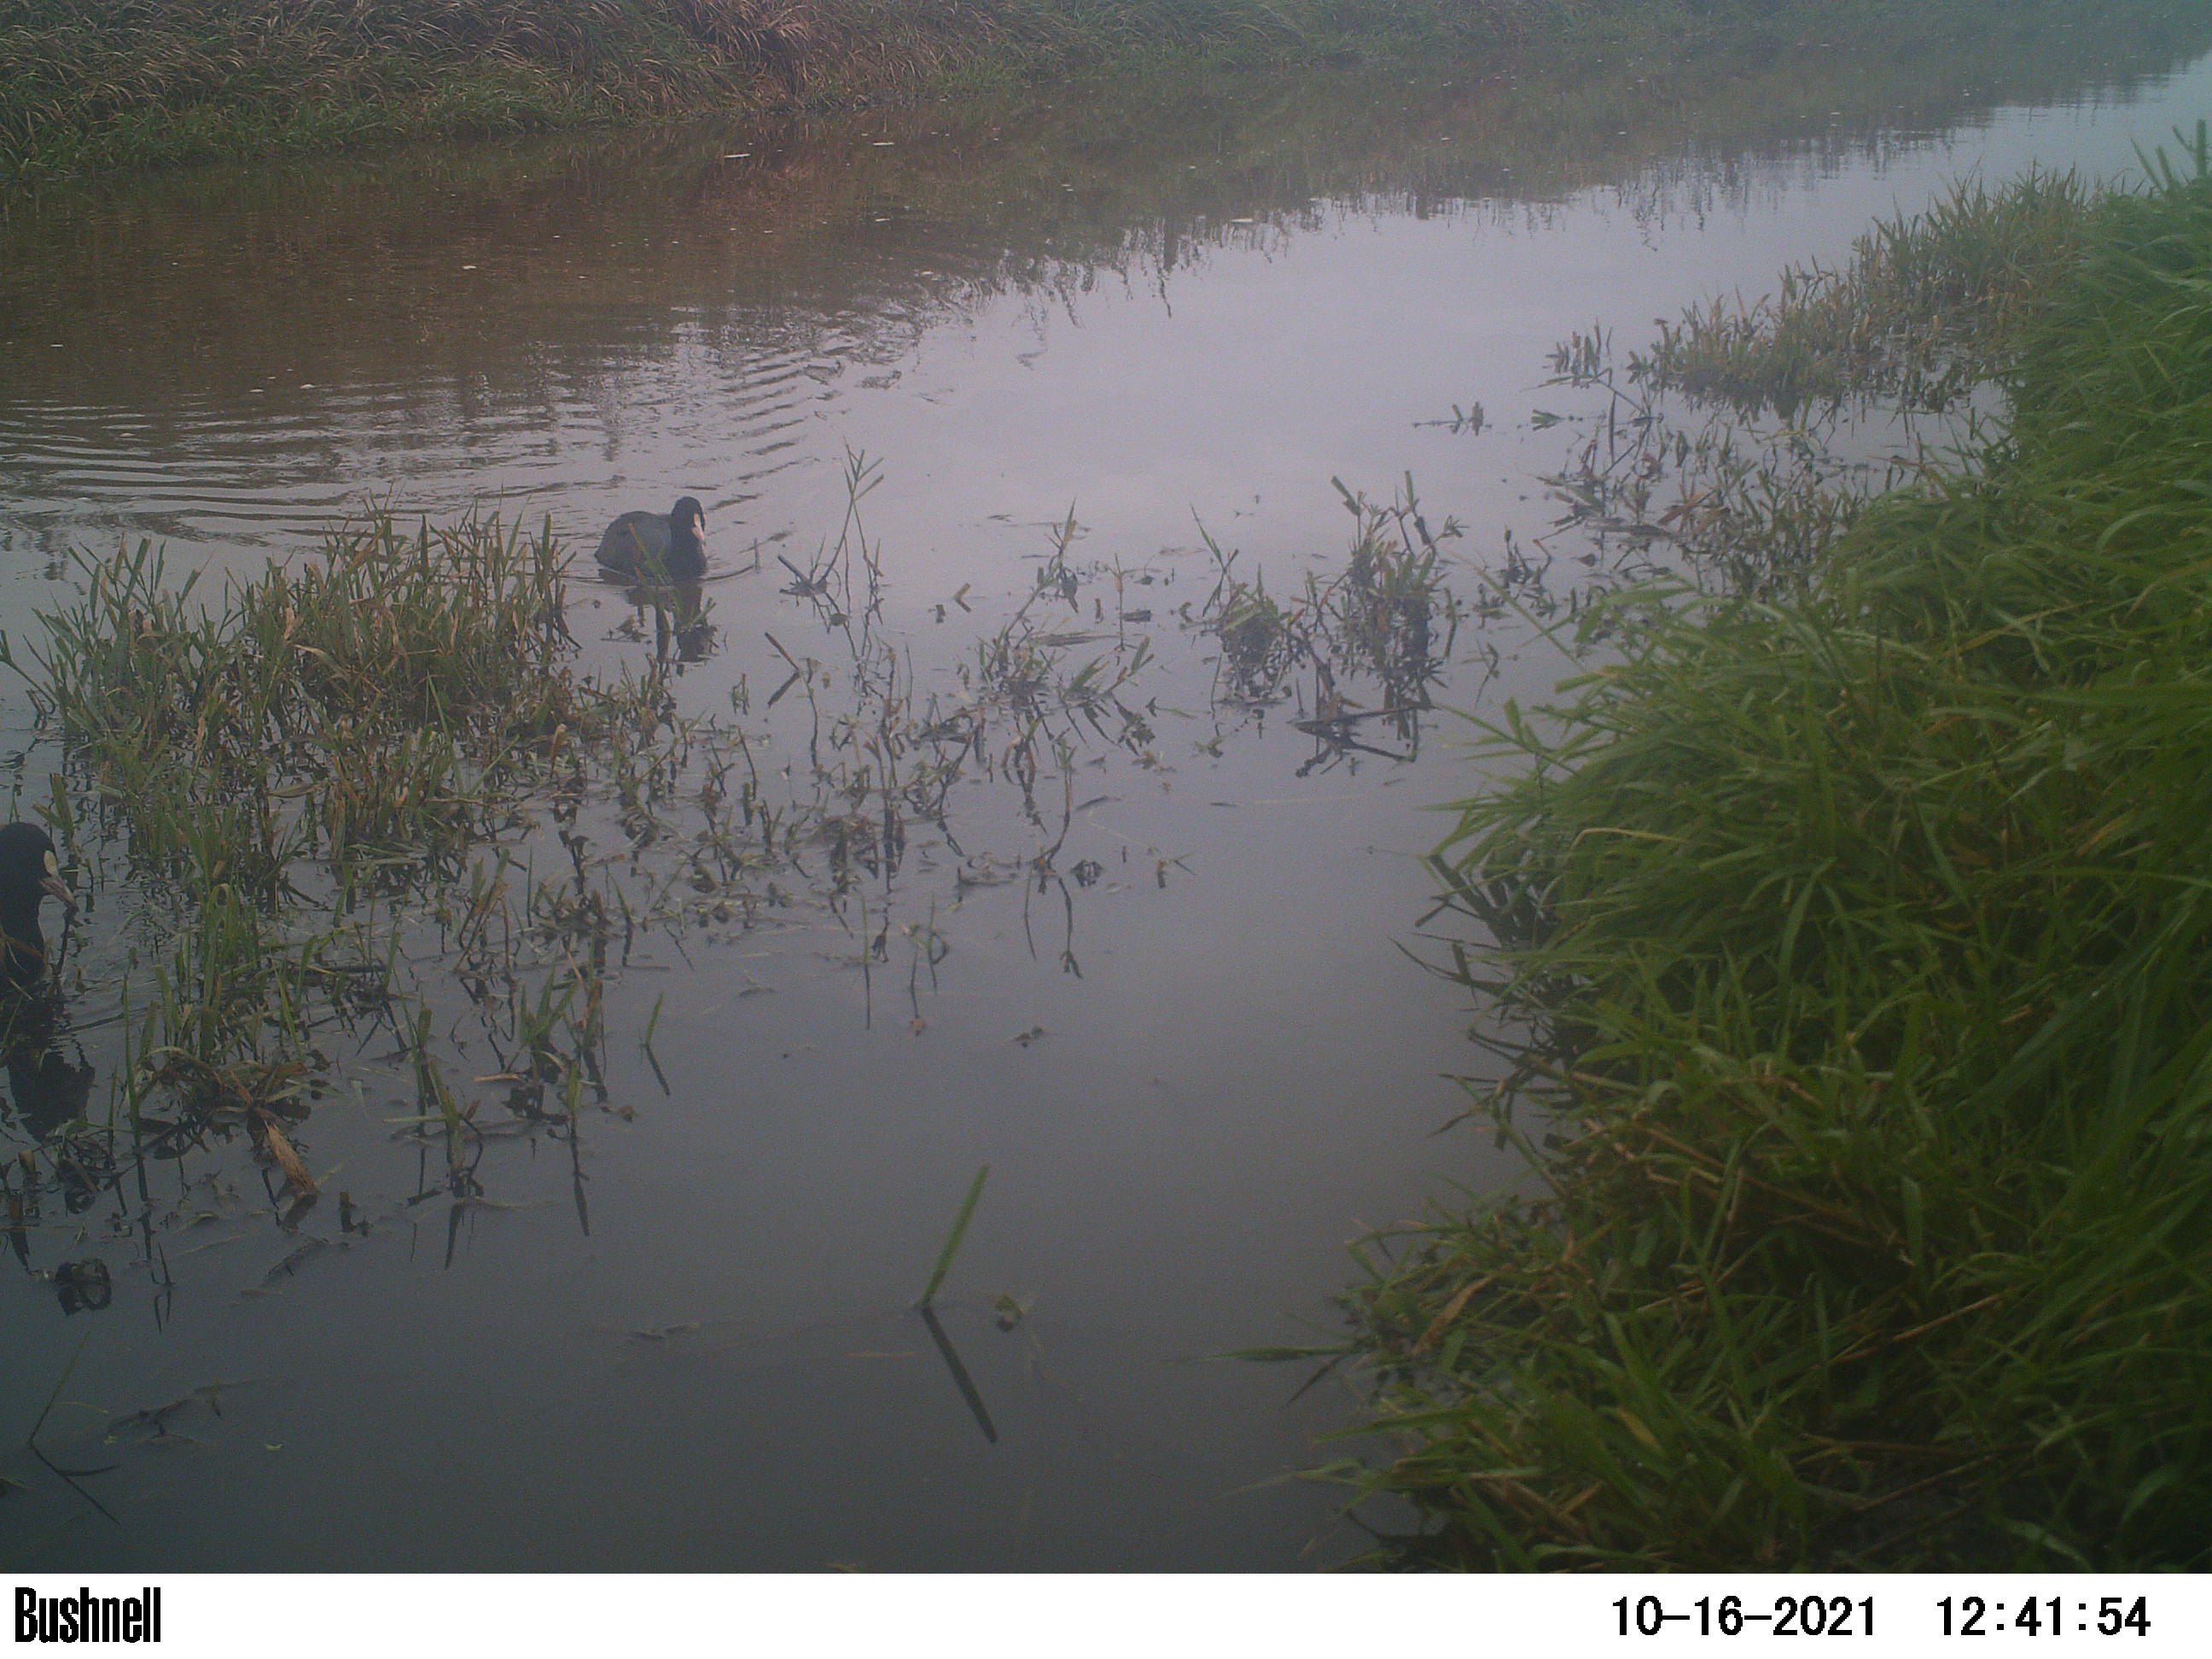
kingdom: Animalia
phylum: Chordata
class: Aves
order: Gruiformes
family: Rallidae
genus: Fulica
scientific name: Fulica atra
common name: Eurasian coot
